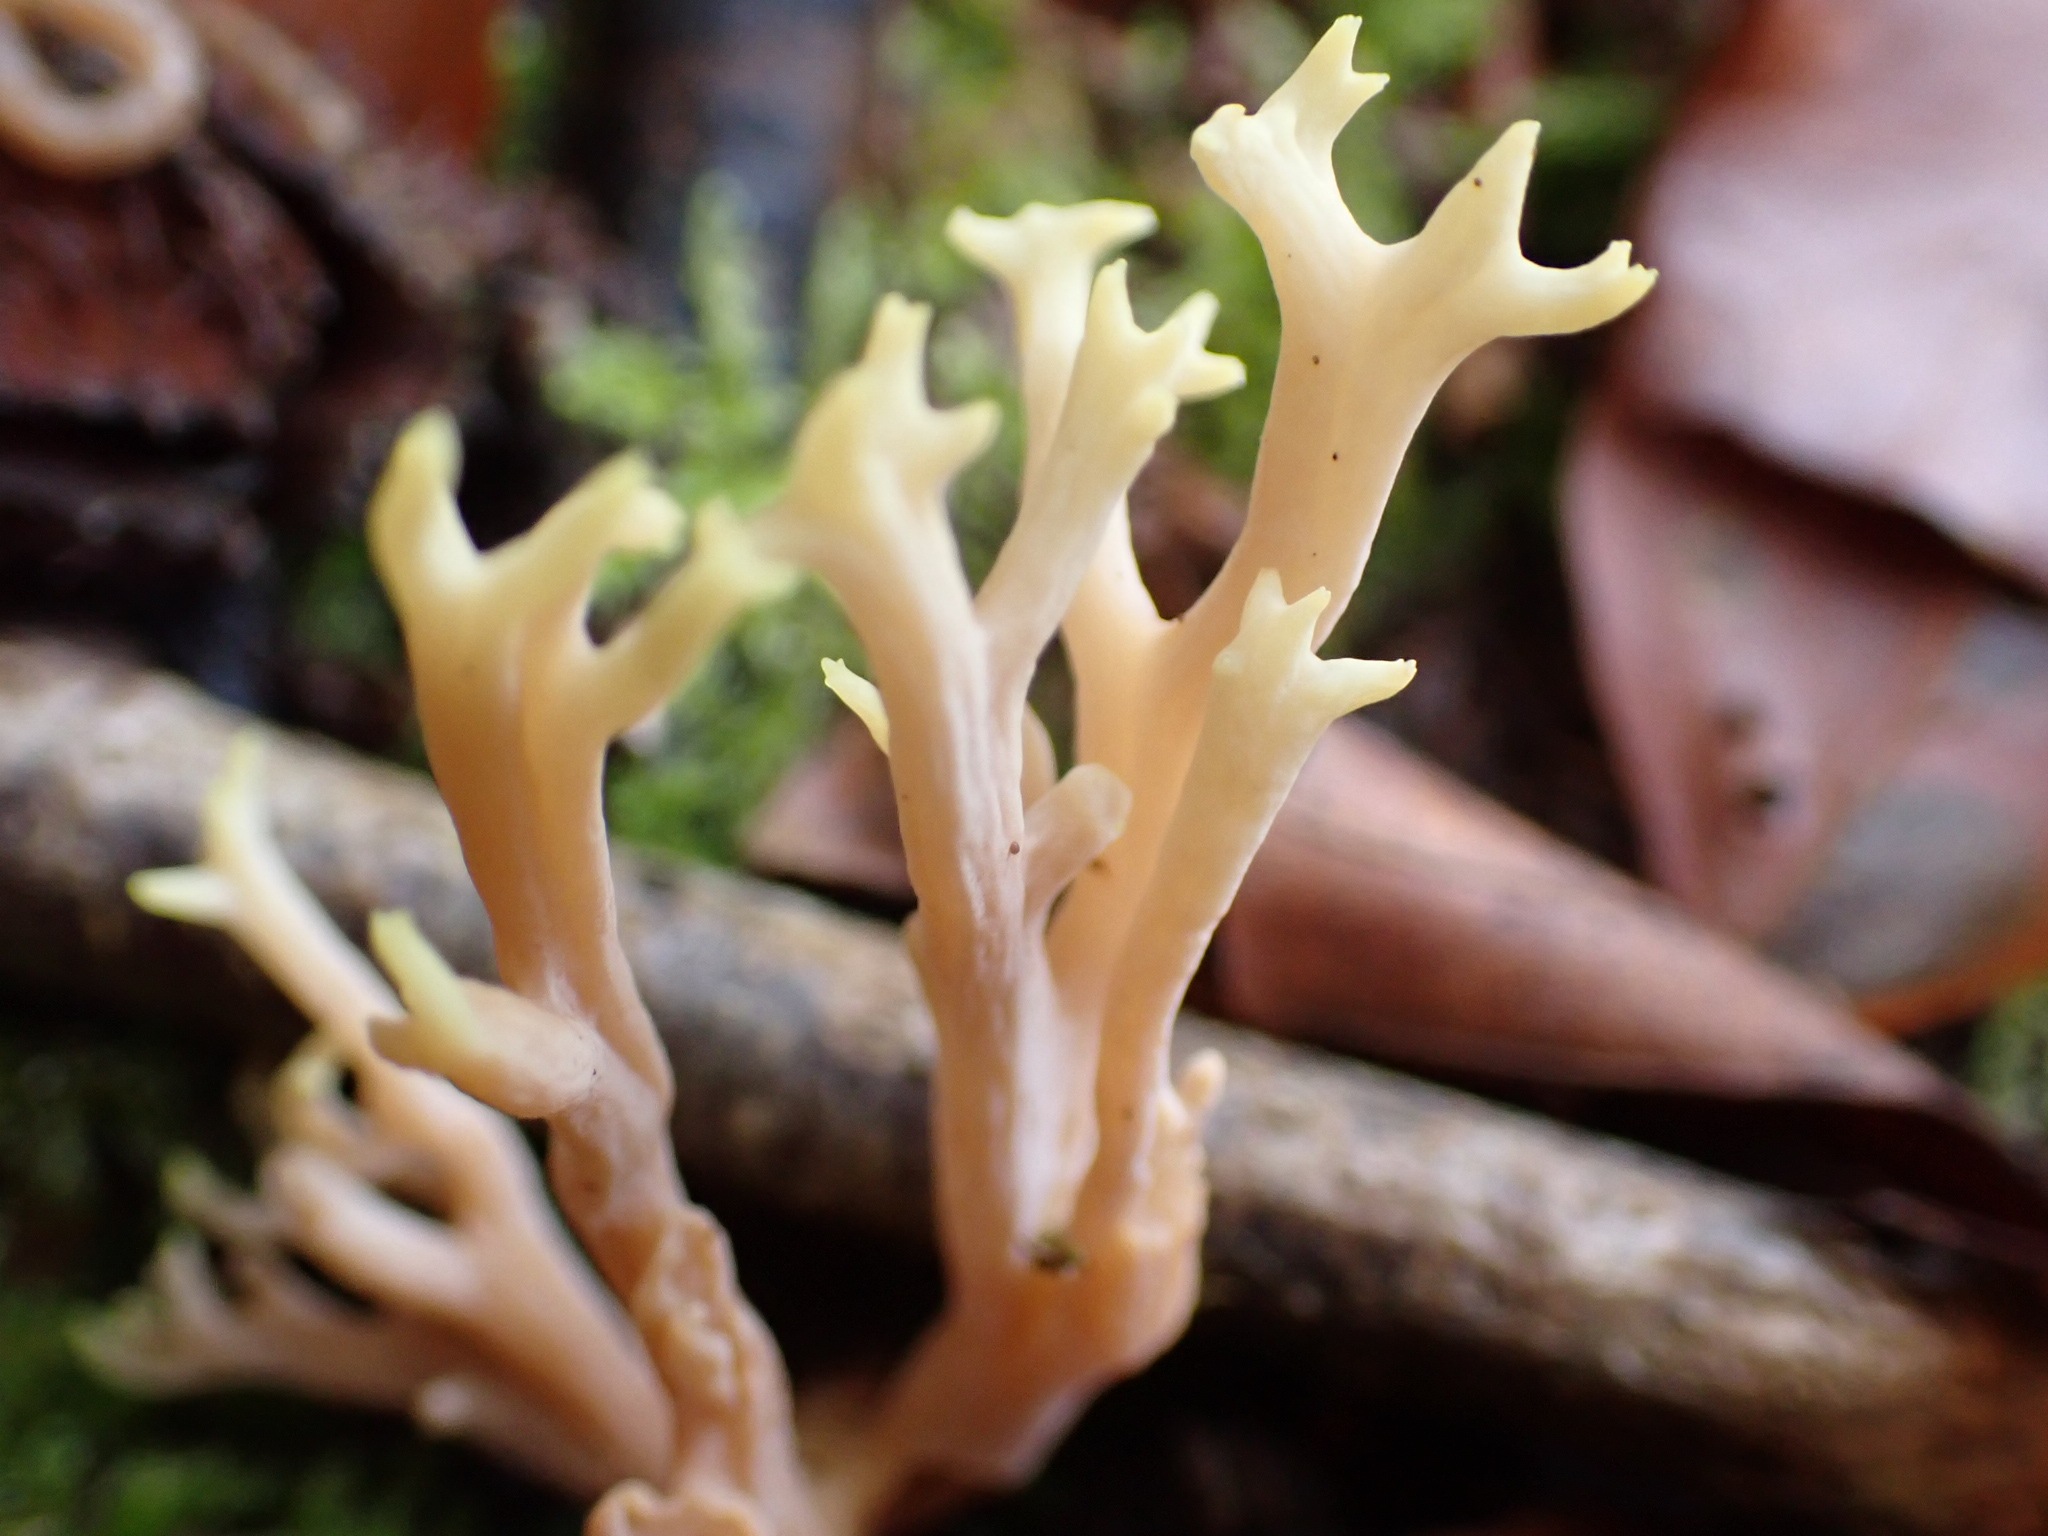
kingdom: Fungi
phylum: Basidiomycota
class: Agaricomycetes
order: Gomphales
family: Gomphaceae
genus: Ramaria
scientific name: Ramaria stricta
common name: rank koralsvamp
